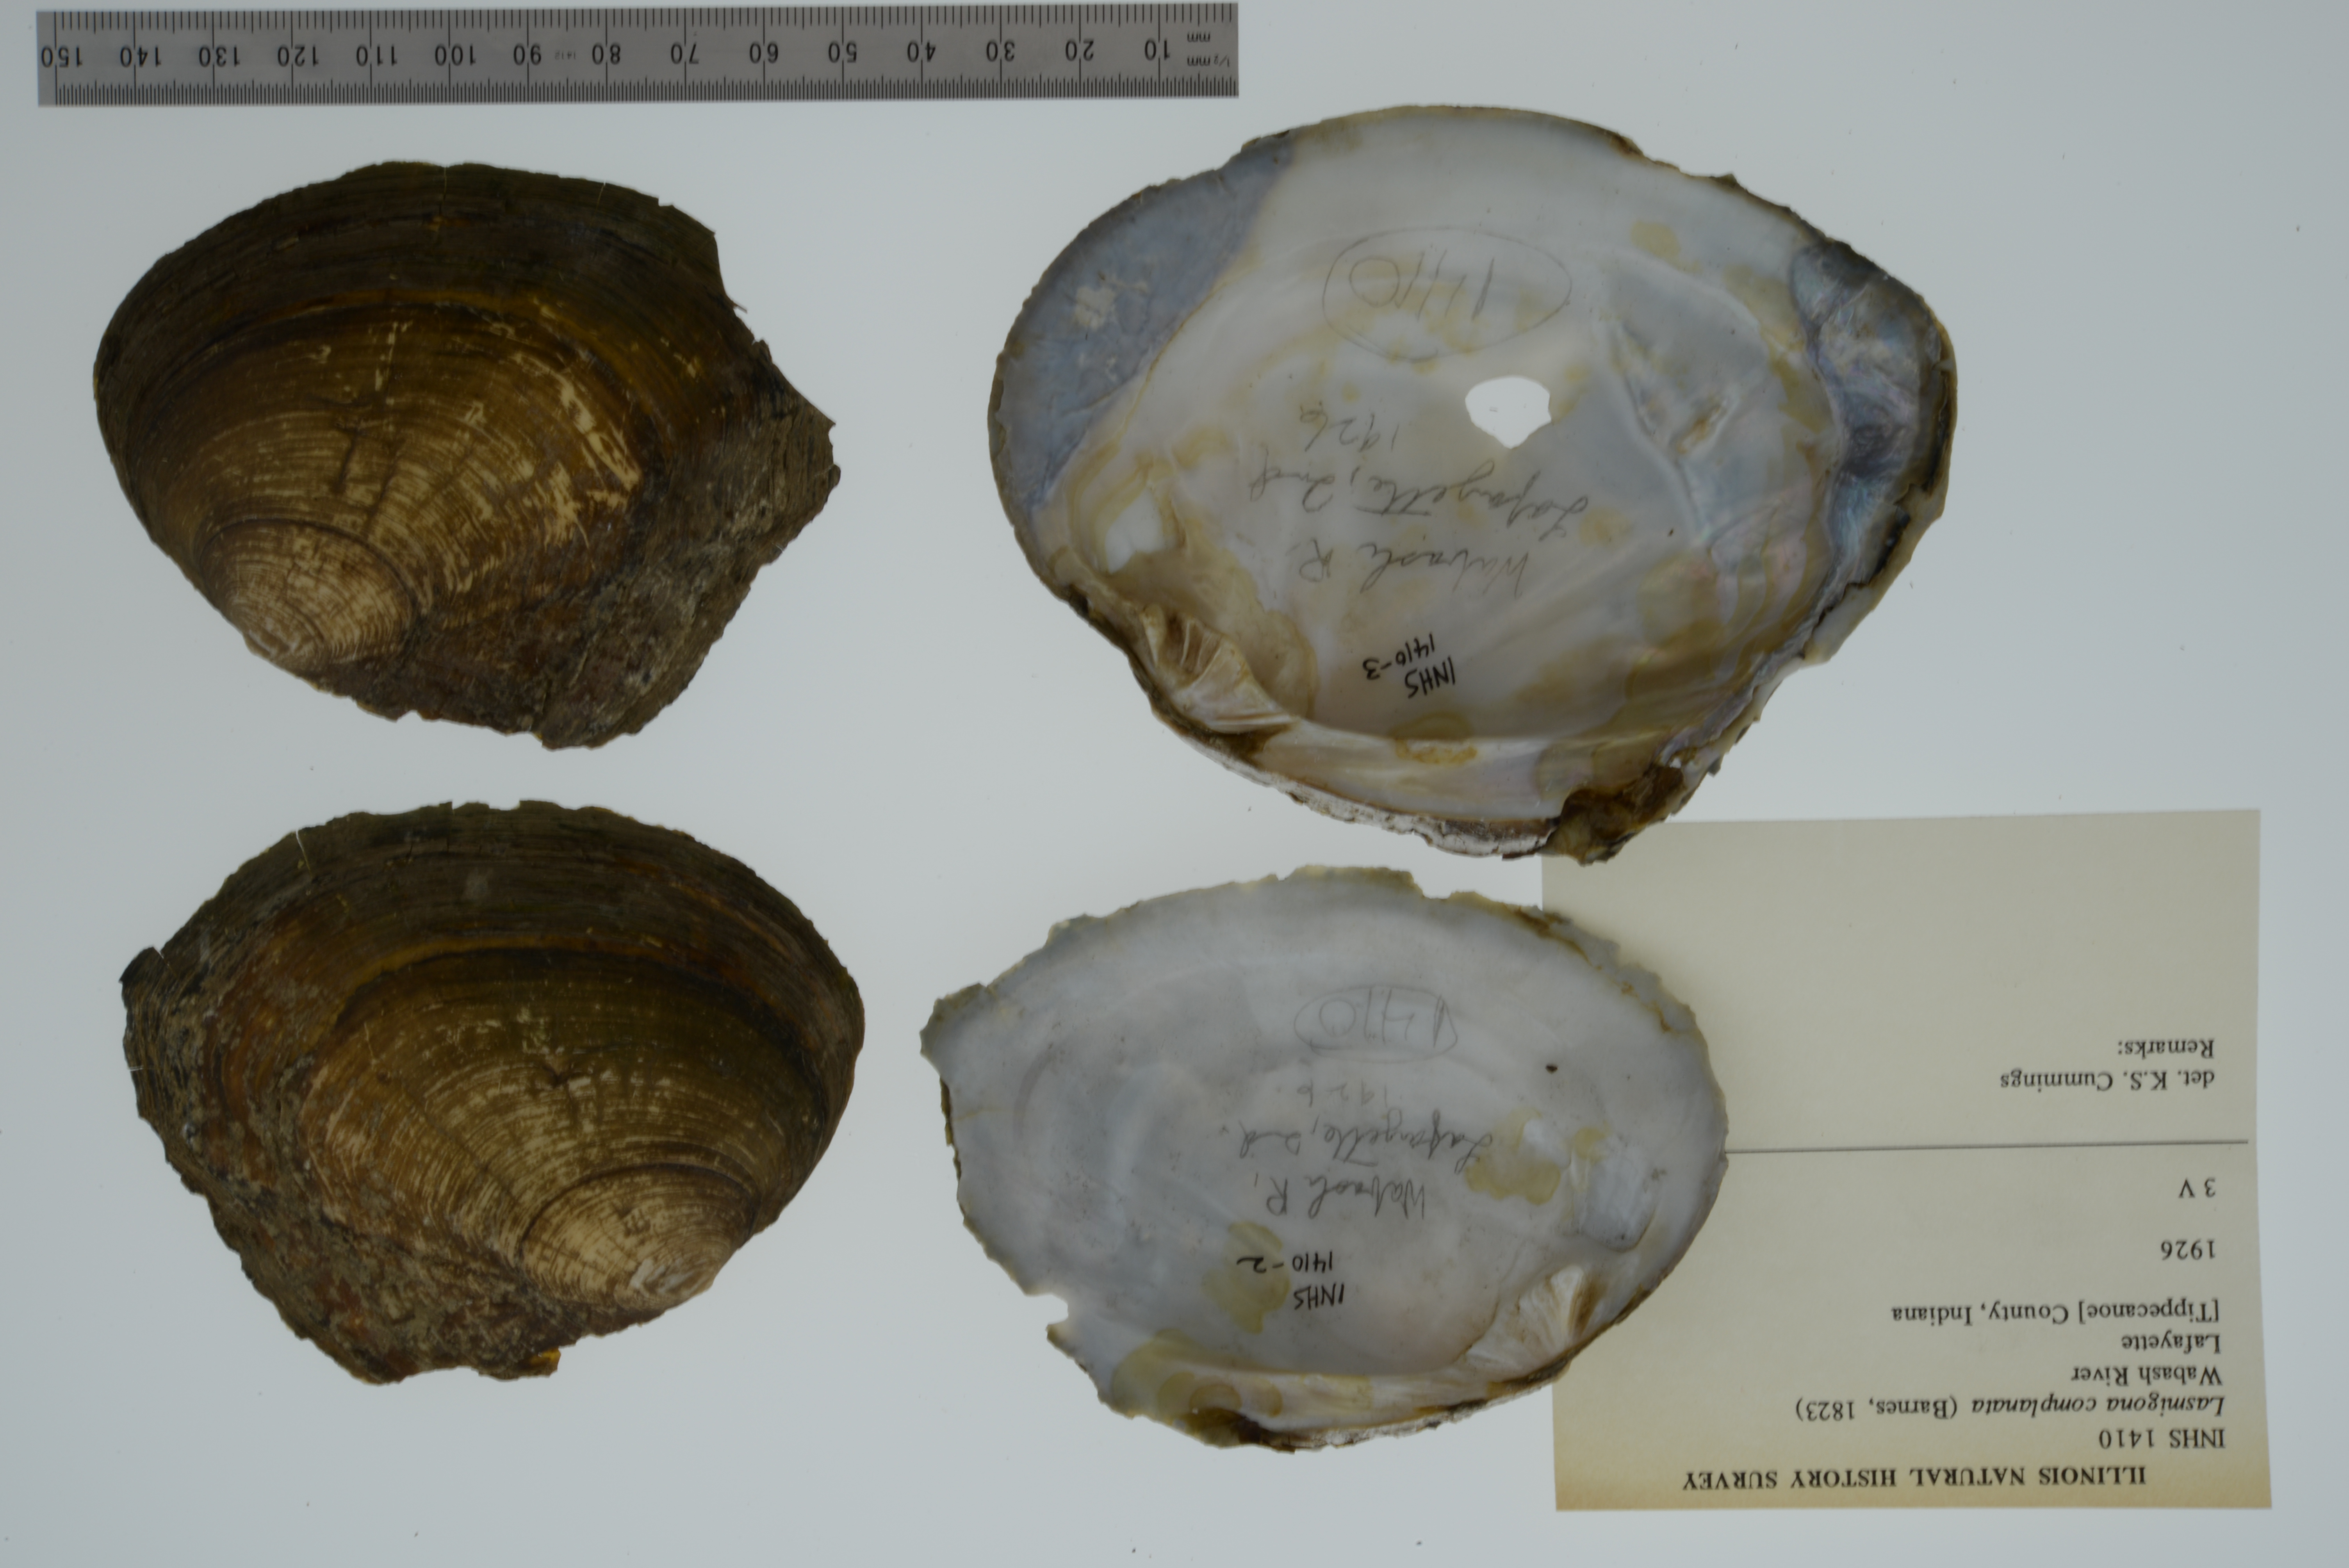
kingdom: Animalia
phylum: Mollusca
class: Bivalvia
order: Unionida
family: Unionidae
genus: Lasmigona
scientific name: Lasmigona complanata
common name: White heelsplitter
